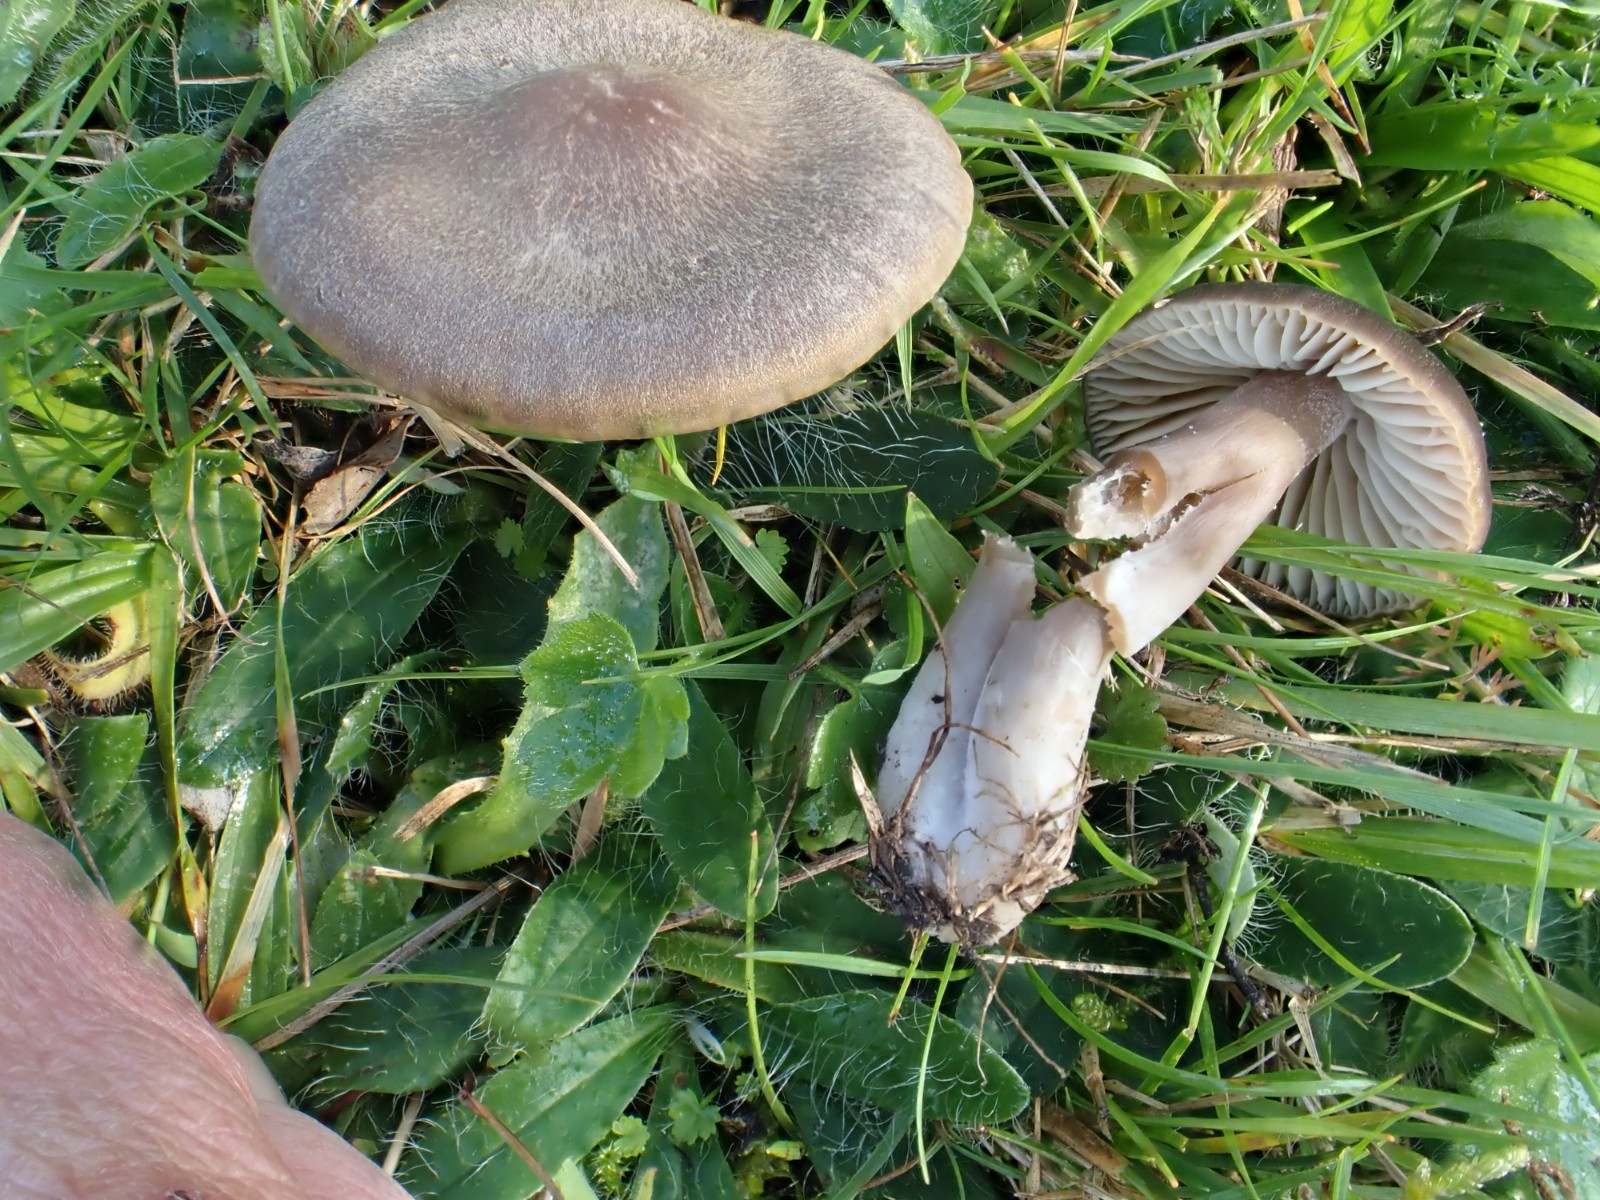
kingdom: Fungi
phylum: Basidiomycota
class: Agaricomycetes
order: Agaricales
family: Hygrophoraceae
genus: Neohygrocybe
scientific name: Neohygrocybe nitrata
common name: stinkende vokshat
